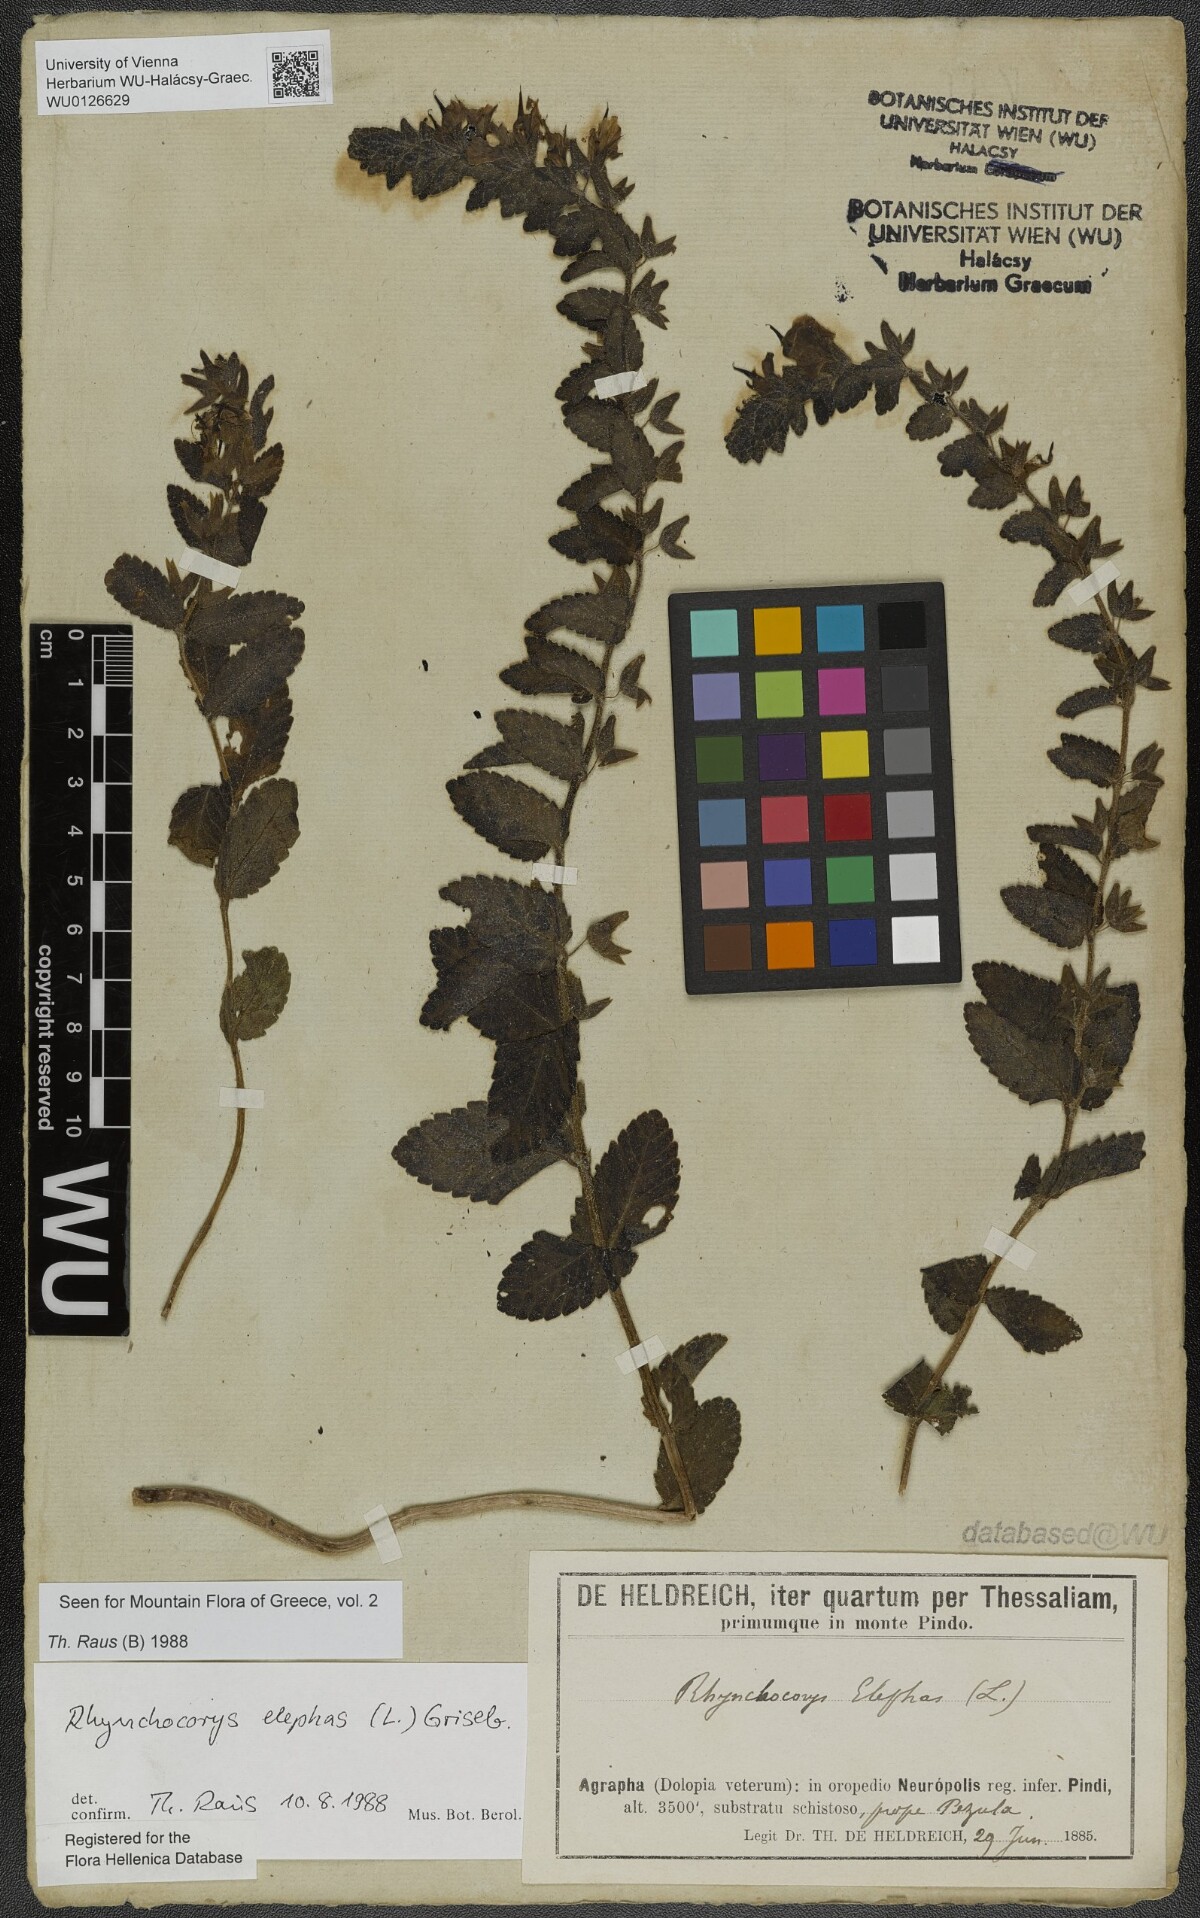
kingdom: Plantae
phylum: Tracheophyta
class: Magnoliopsida
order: Lamiales
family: Orobanchaceae
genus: Rhynchocorys
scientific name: Rhynchocorys elephas
